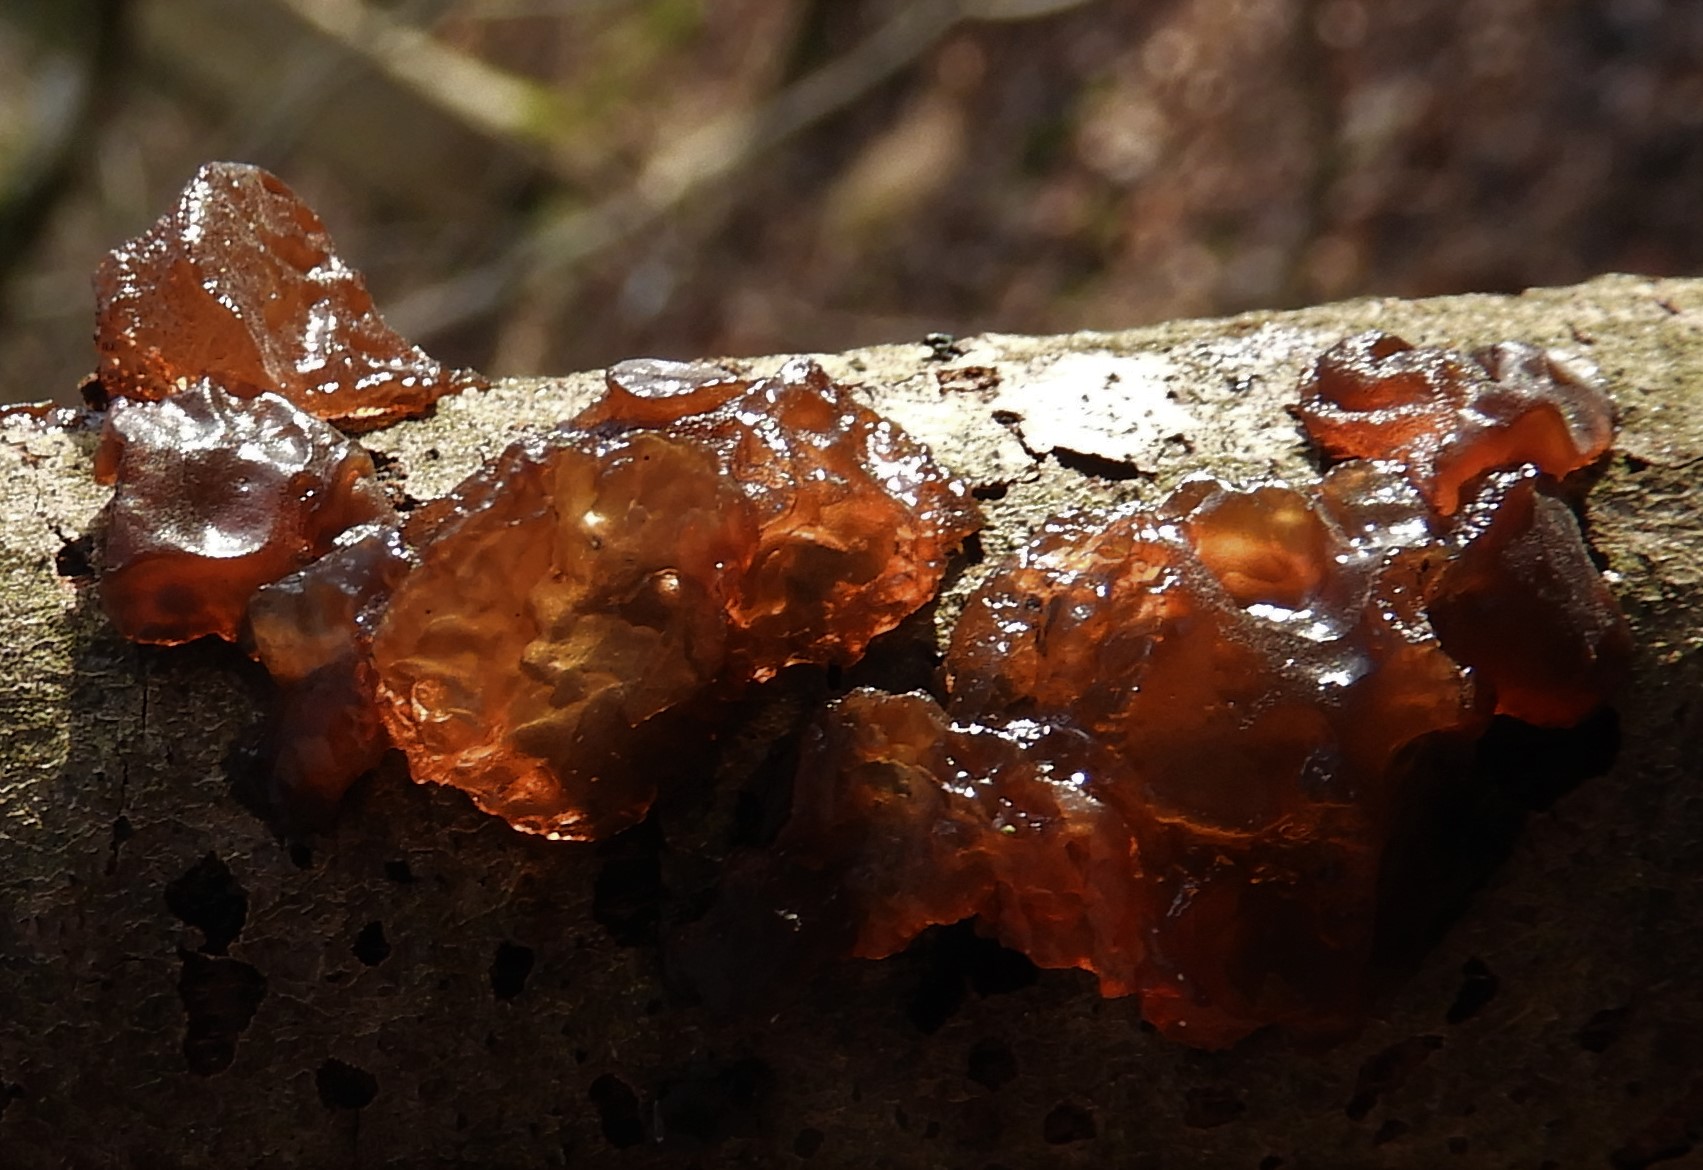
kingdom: Fungi
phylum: Basidiomycota
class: Agaricomycetes
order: Auriculariales
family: Auriculariaceae
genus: Exidia
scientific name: Exidia recisa
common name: pile-bævretop
